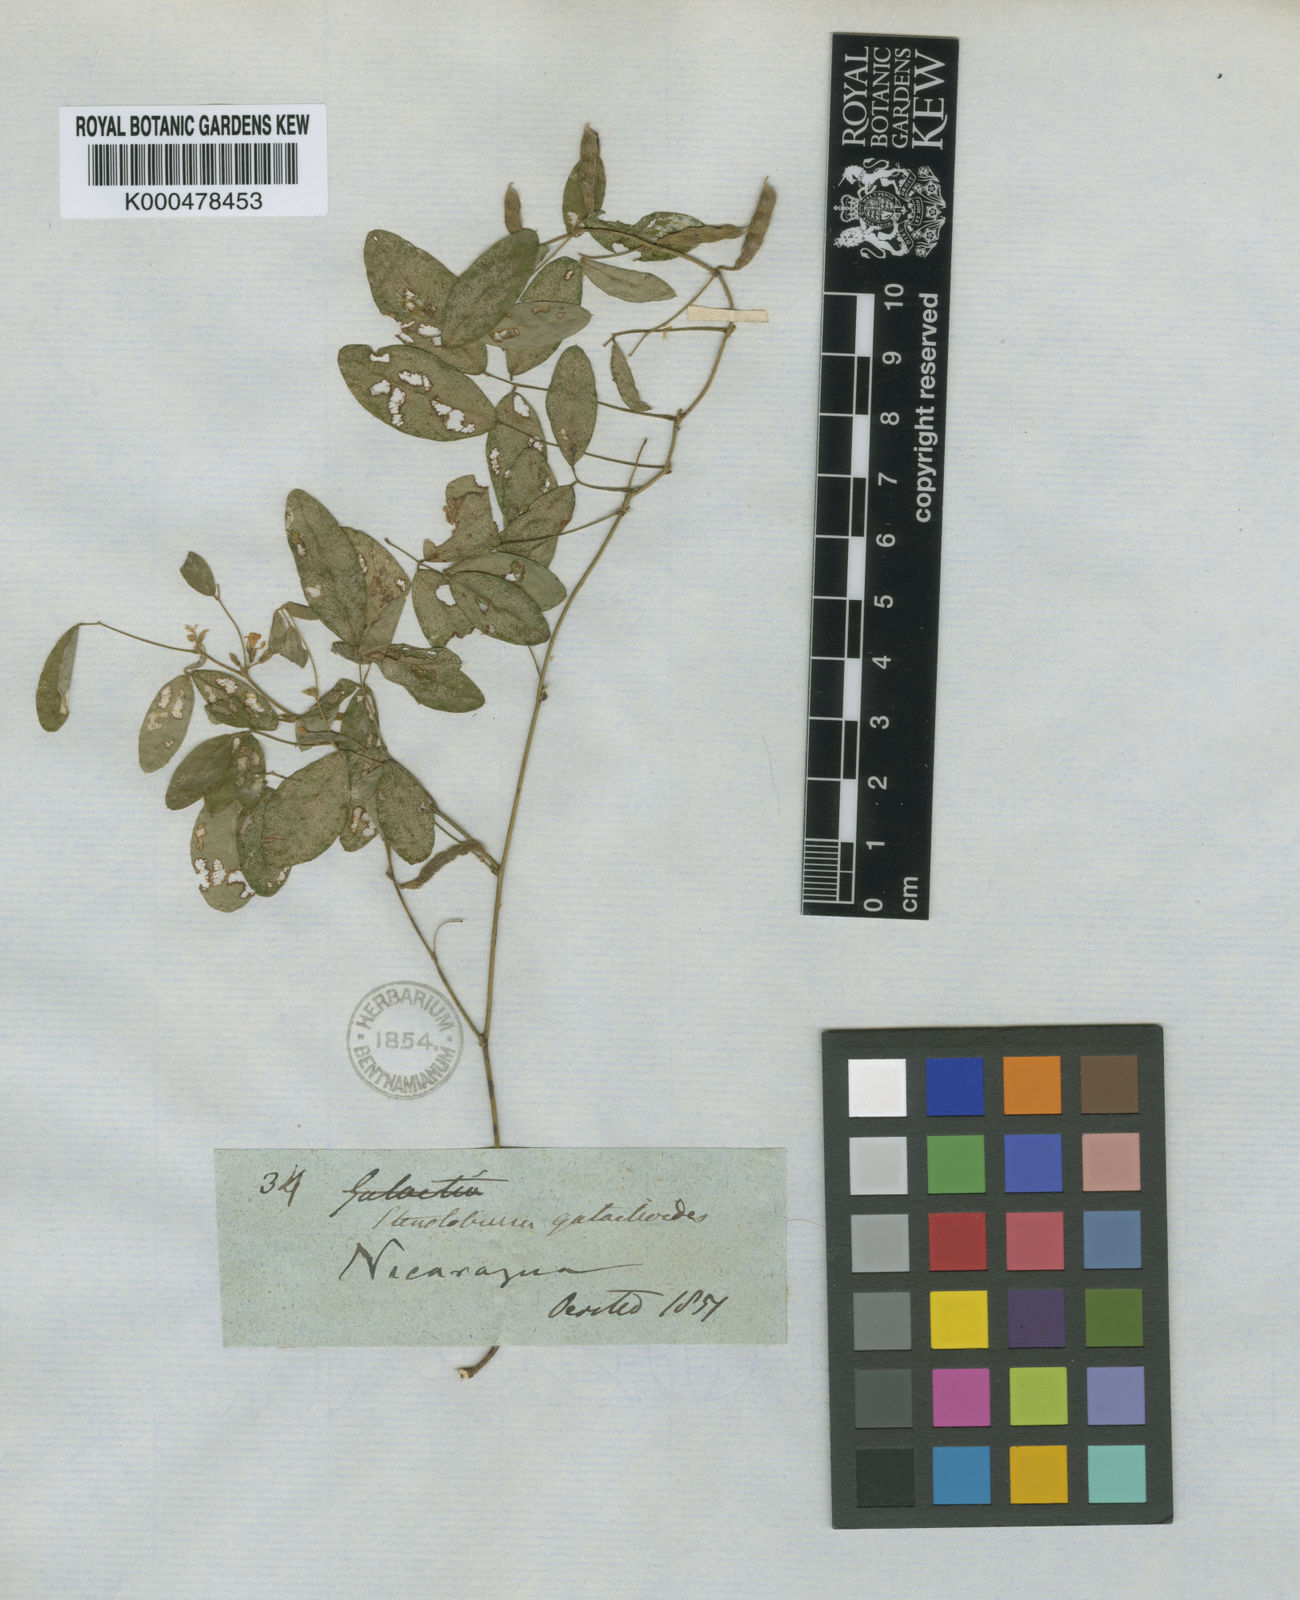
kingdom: Plantae
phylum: Tracheophyta
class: Magnoliopsida
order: Fabales
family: Fabaceae
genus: Calopogonium
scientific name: Calopogonium
